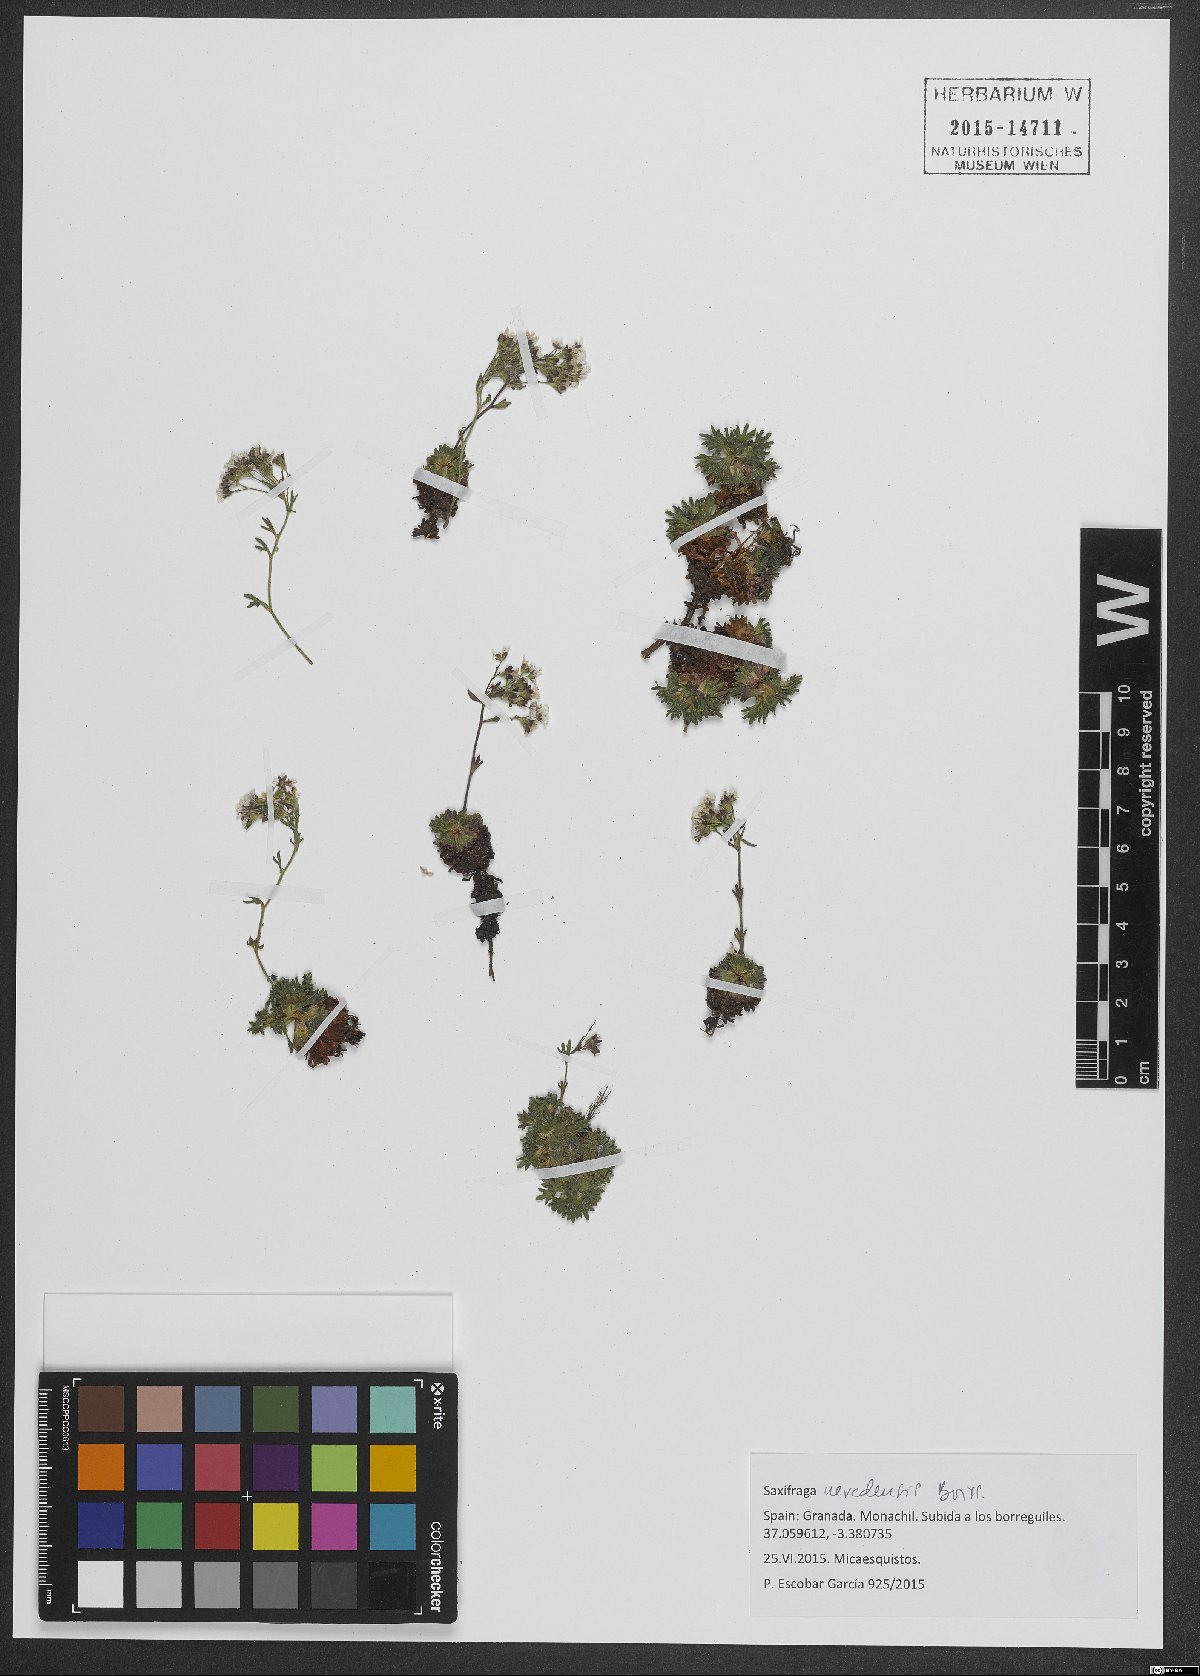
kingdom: Plantae
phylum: Tracheophyta
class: Magnoliopsida
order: Saxifragales
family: Saxifragaceae
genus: Saxifraga
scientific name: Saxifraga nevadensis
